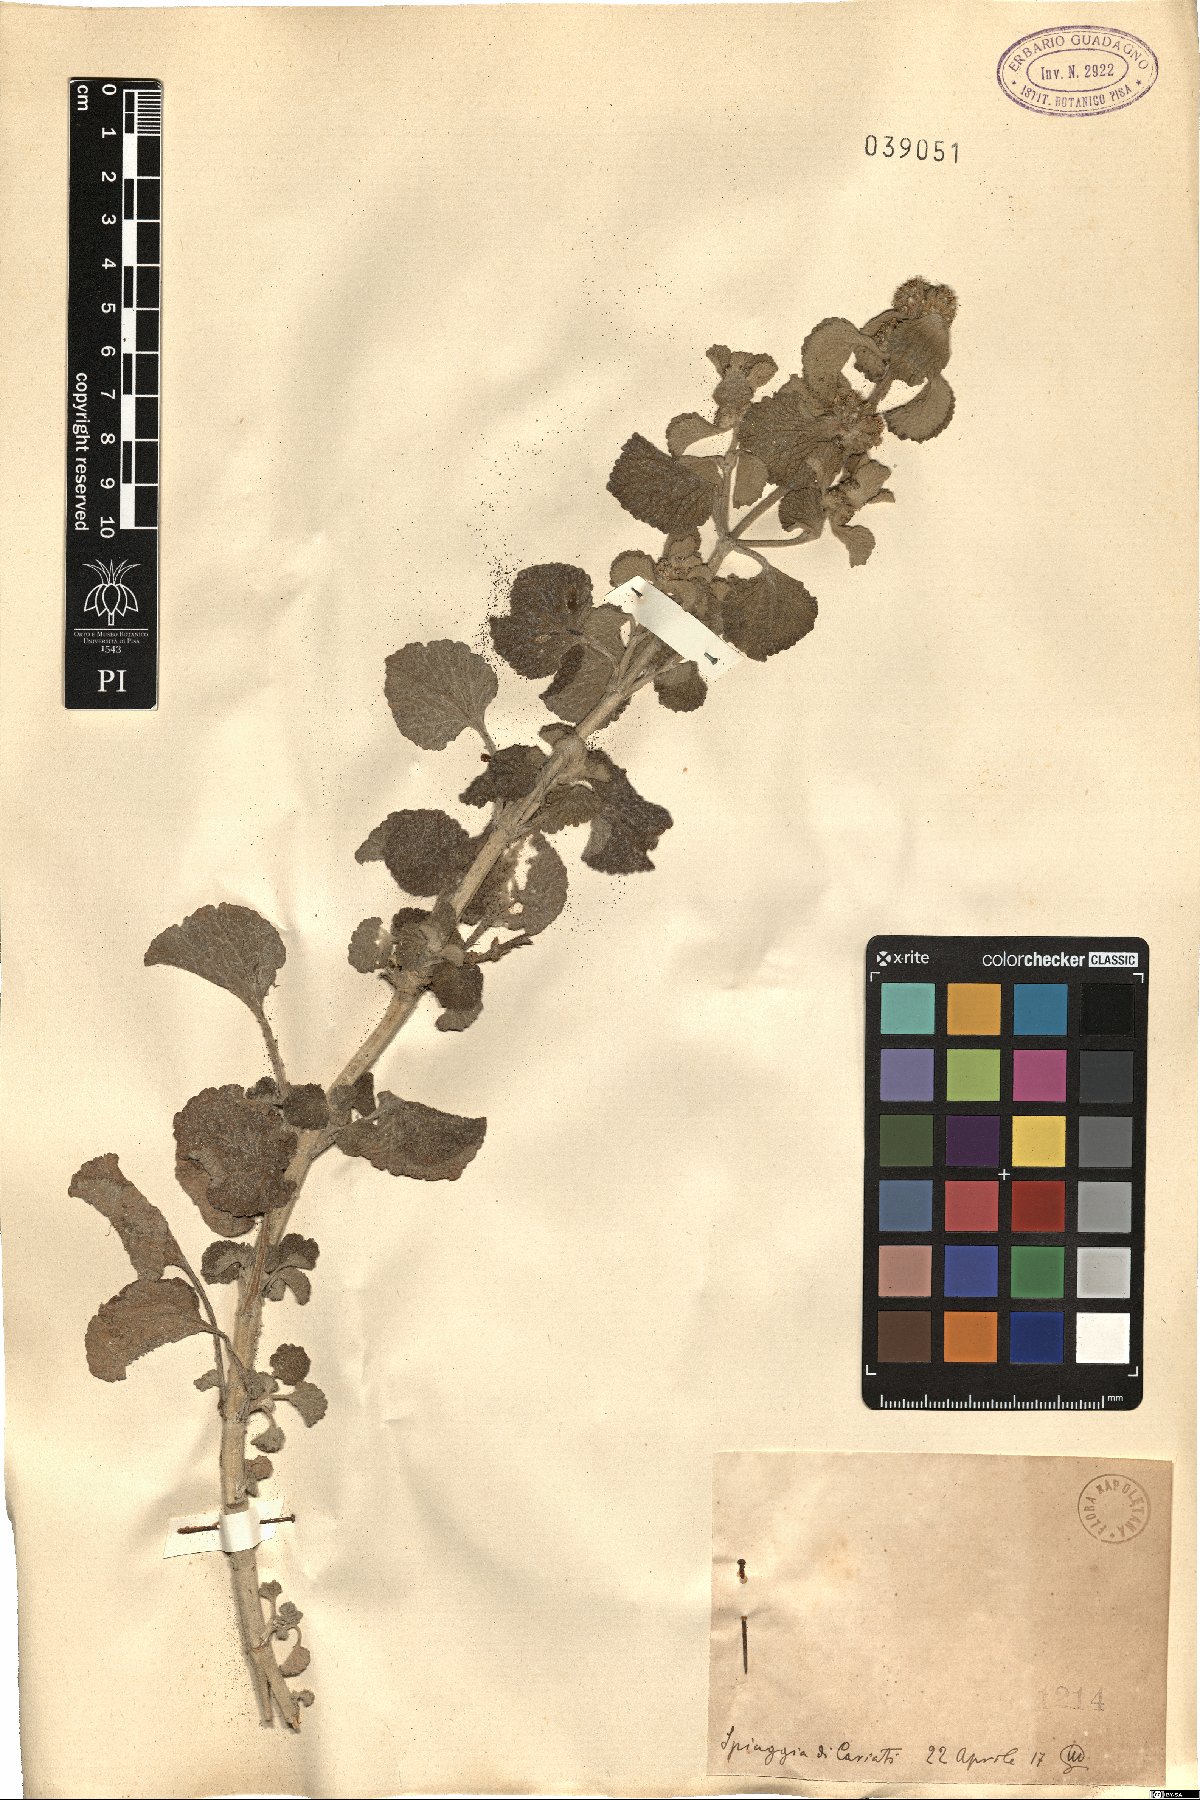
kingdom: Plantae
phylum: Tracheophyta
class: Magnoliopsida
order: Lamiales
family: Lamiaceae
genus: Marrubium
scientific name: Marrubium
